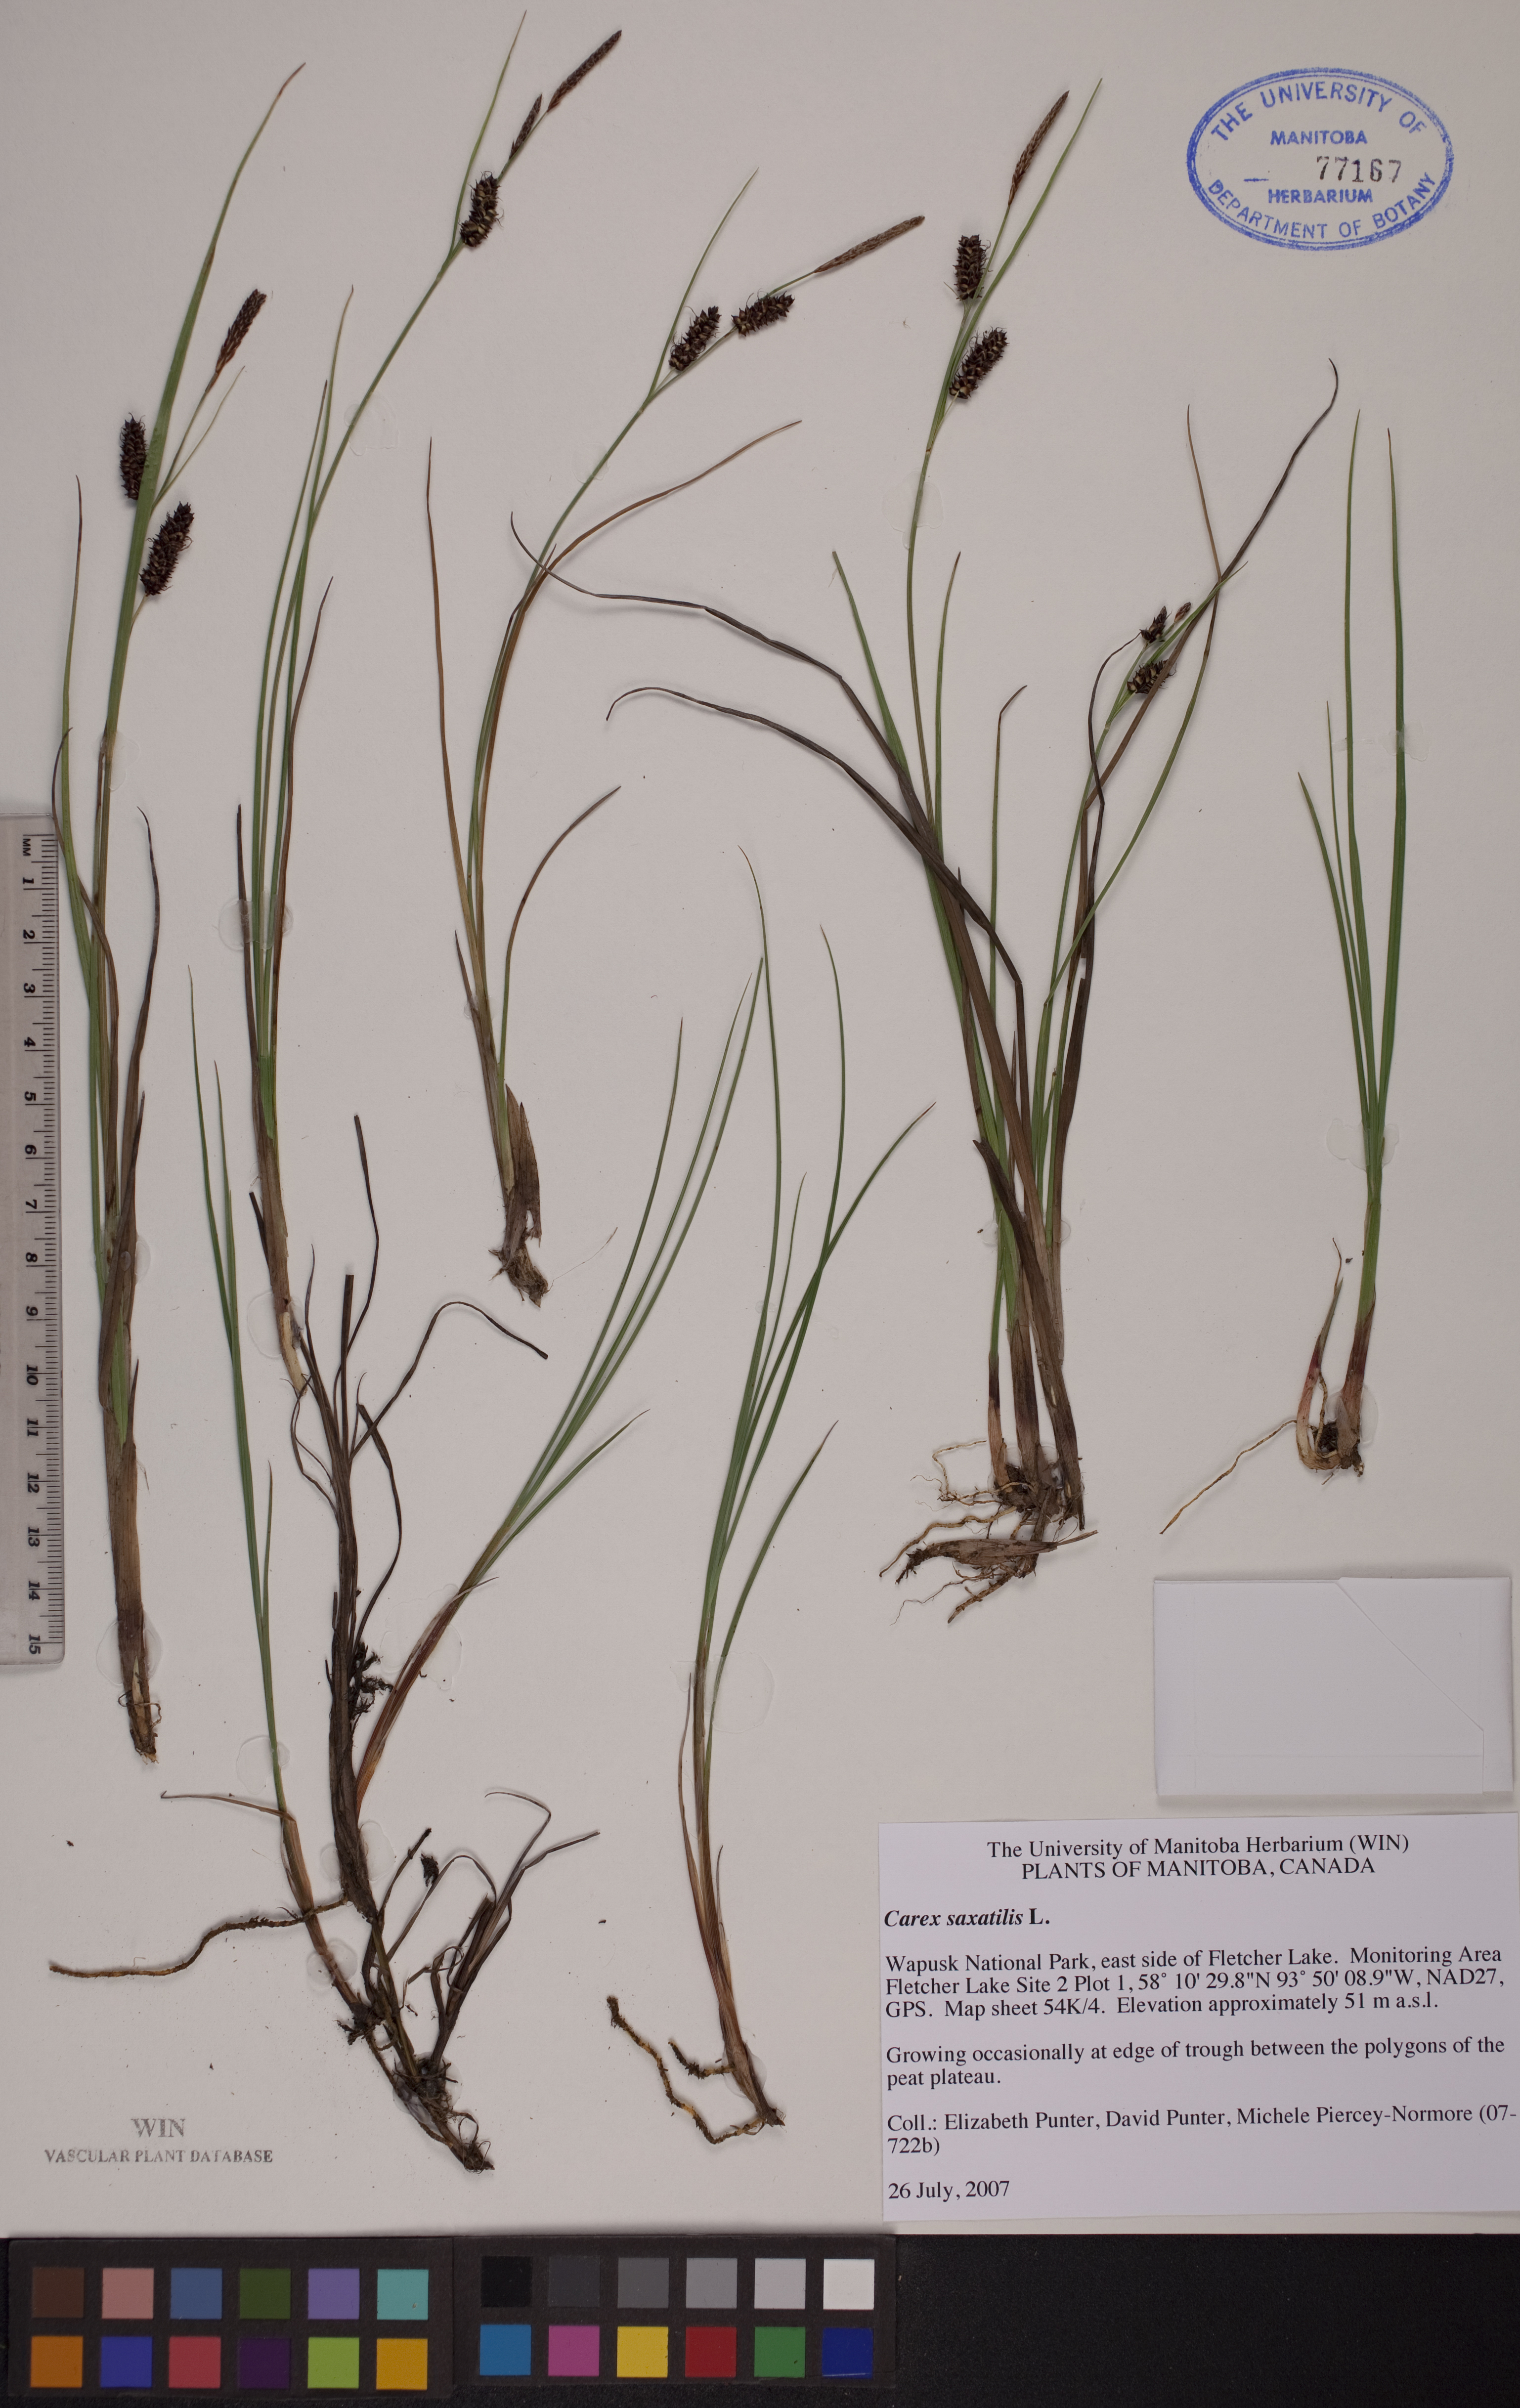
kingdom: Plantae
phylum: Tracheophyta
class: Liliopsida
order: Poales
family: Cyperaceae
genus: Carex
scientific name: Carex saxatilis
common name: Russet sedge
